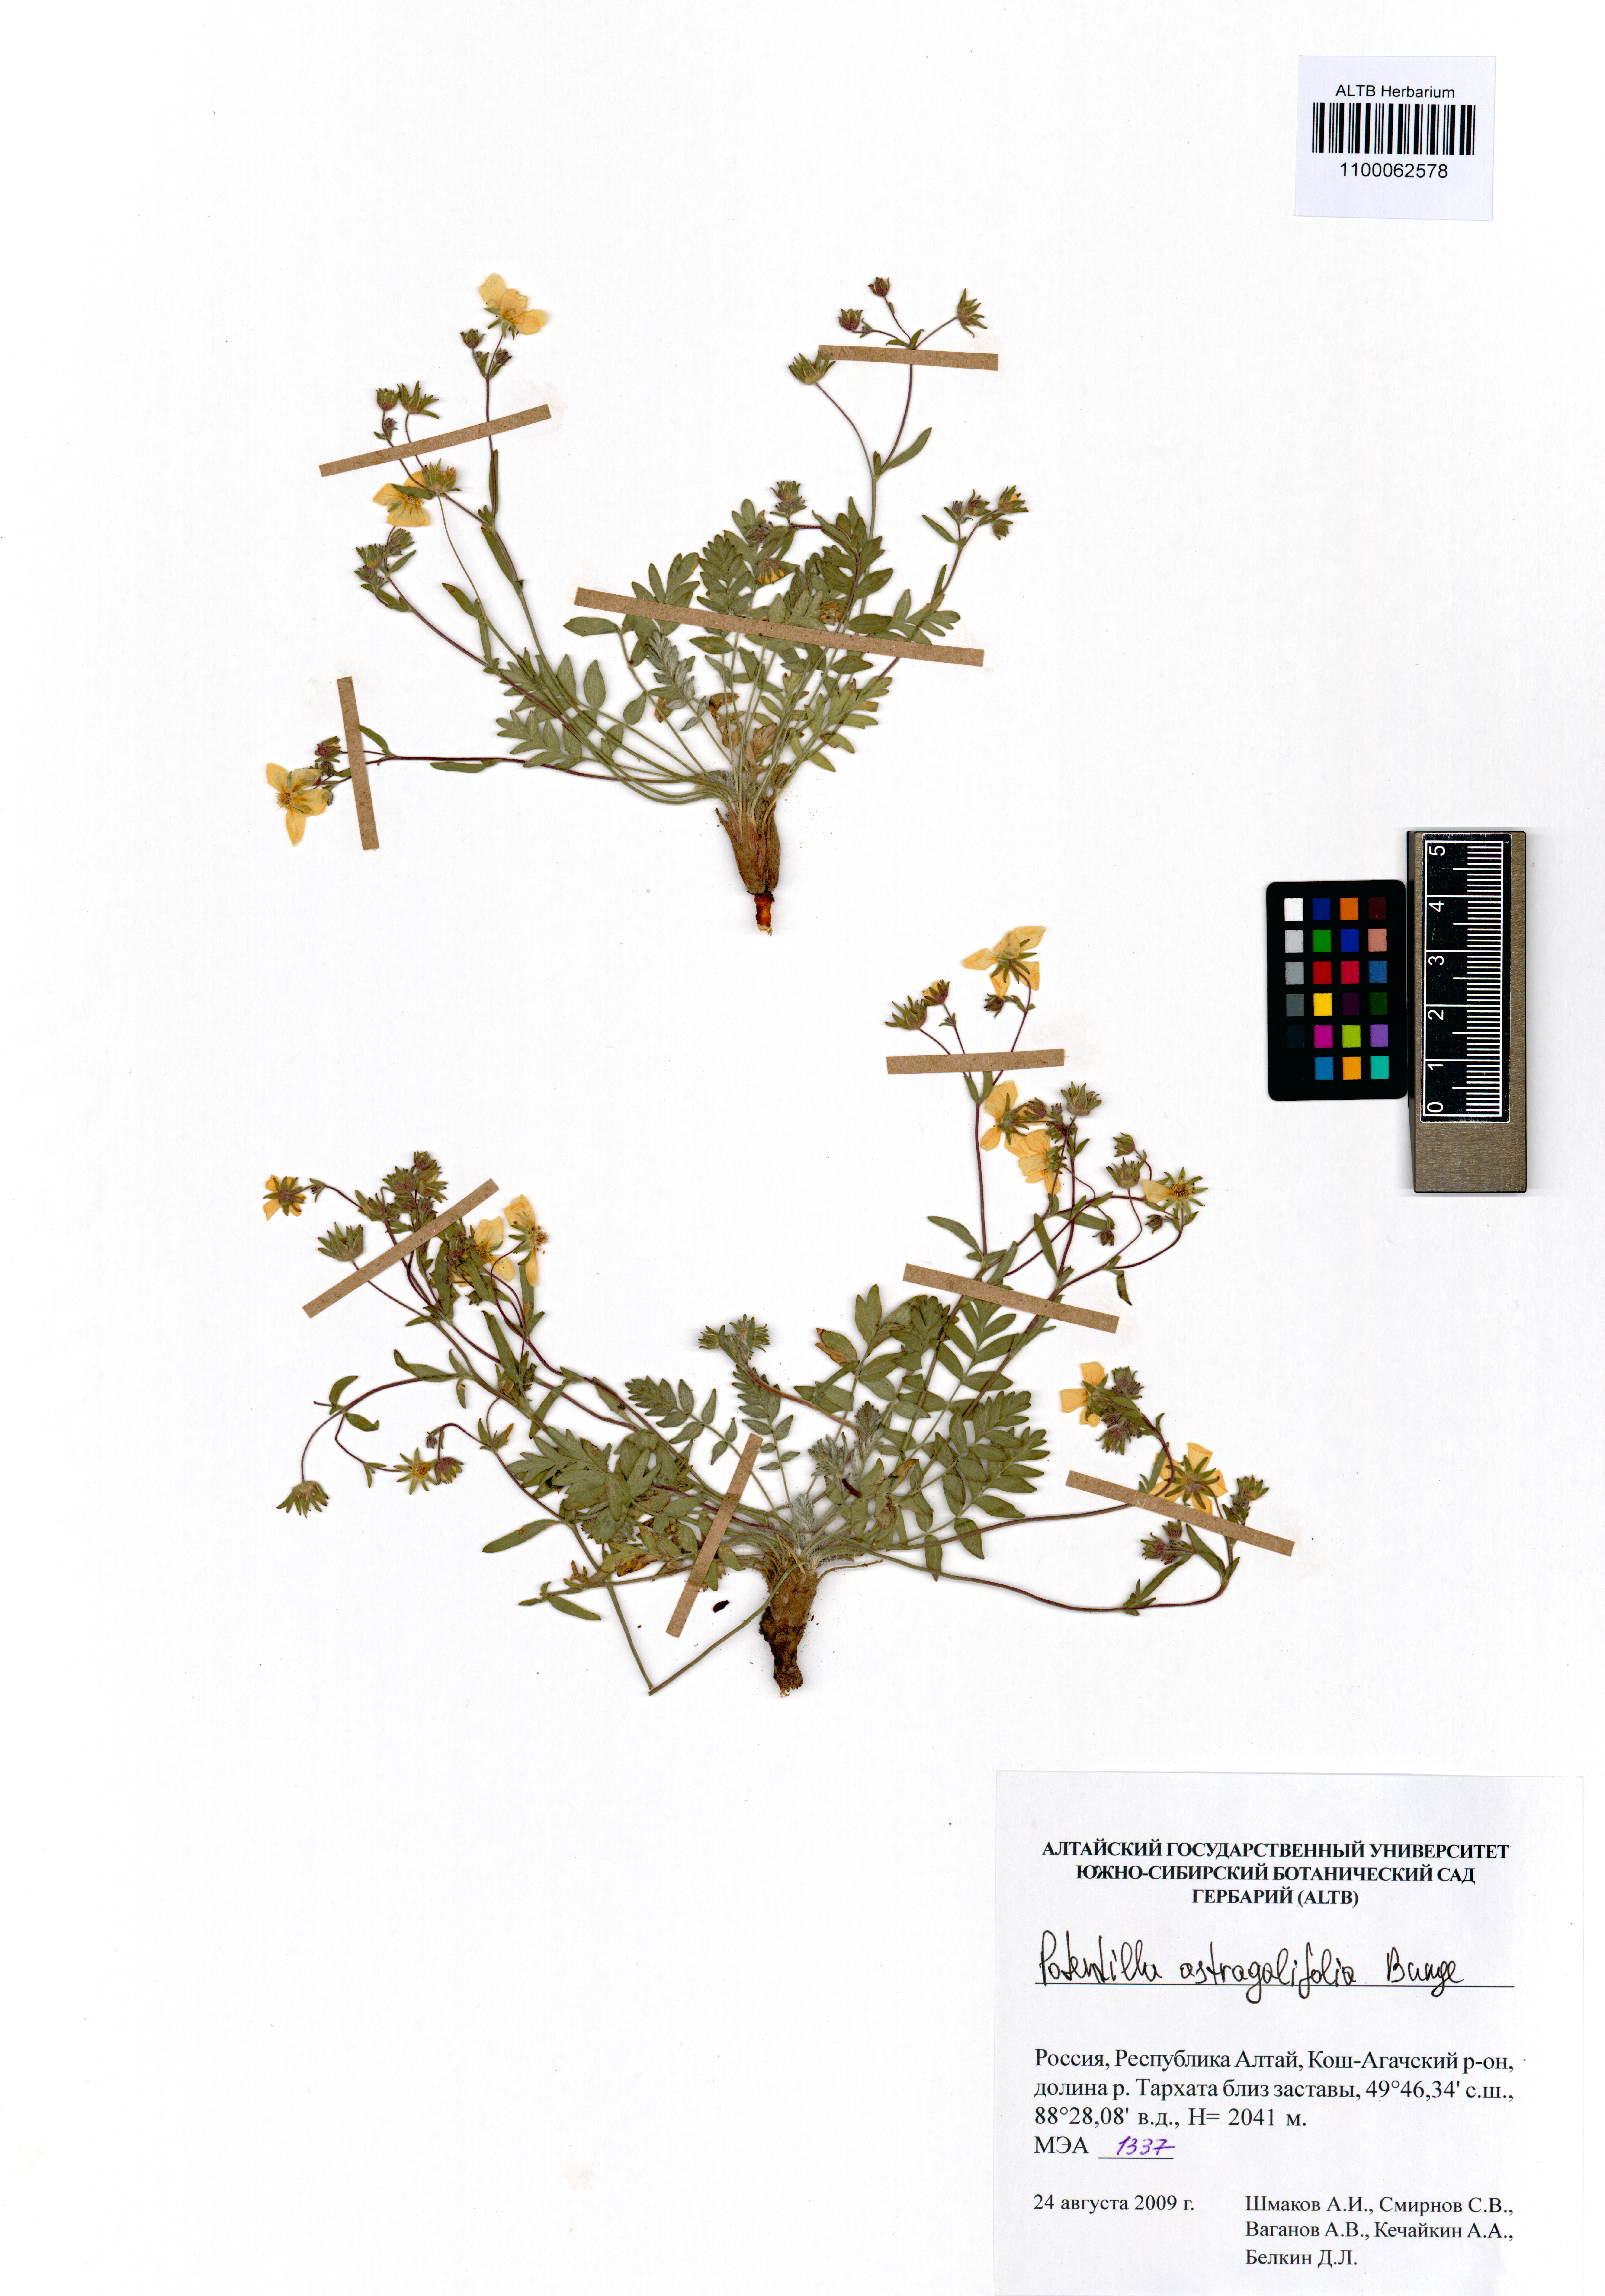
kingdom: Plantae
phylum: Tracheophyta
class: Magnoliopsida
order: Rosales
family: Rosaceae
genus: Potentilla
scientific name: Potentilla astragalifolia
